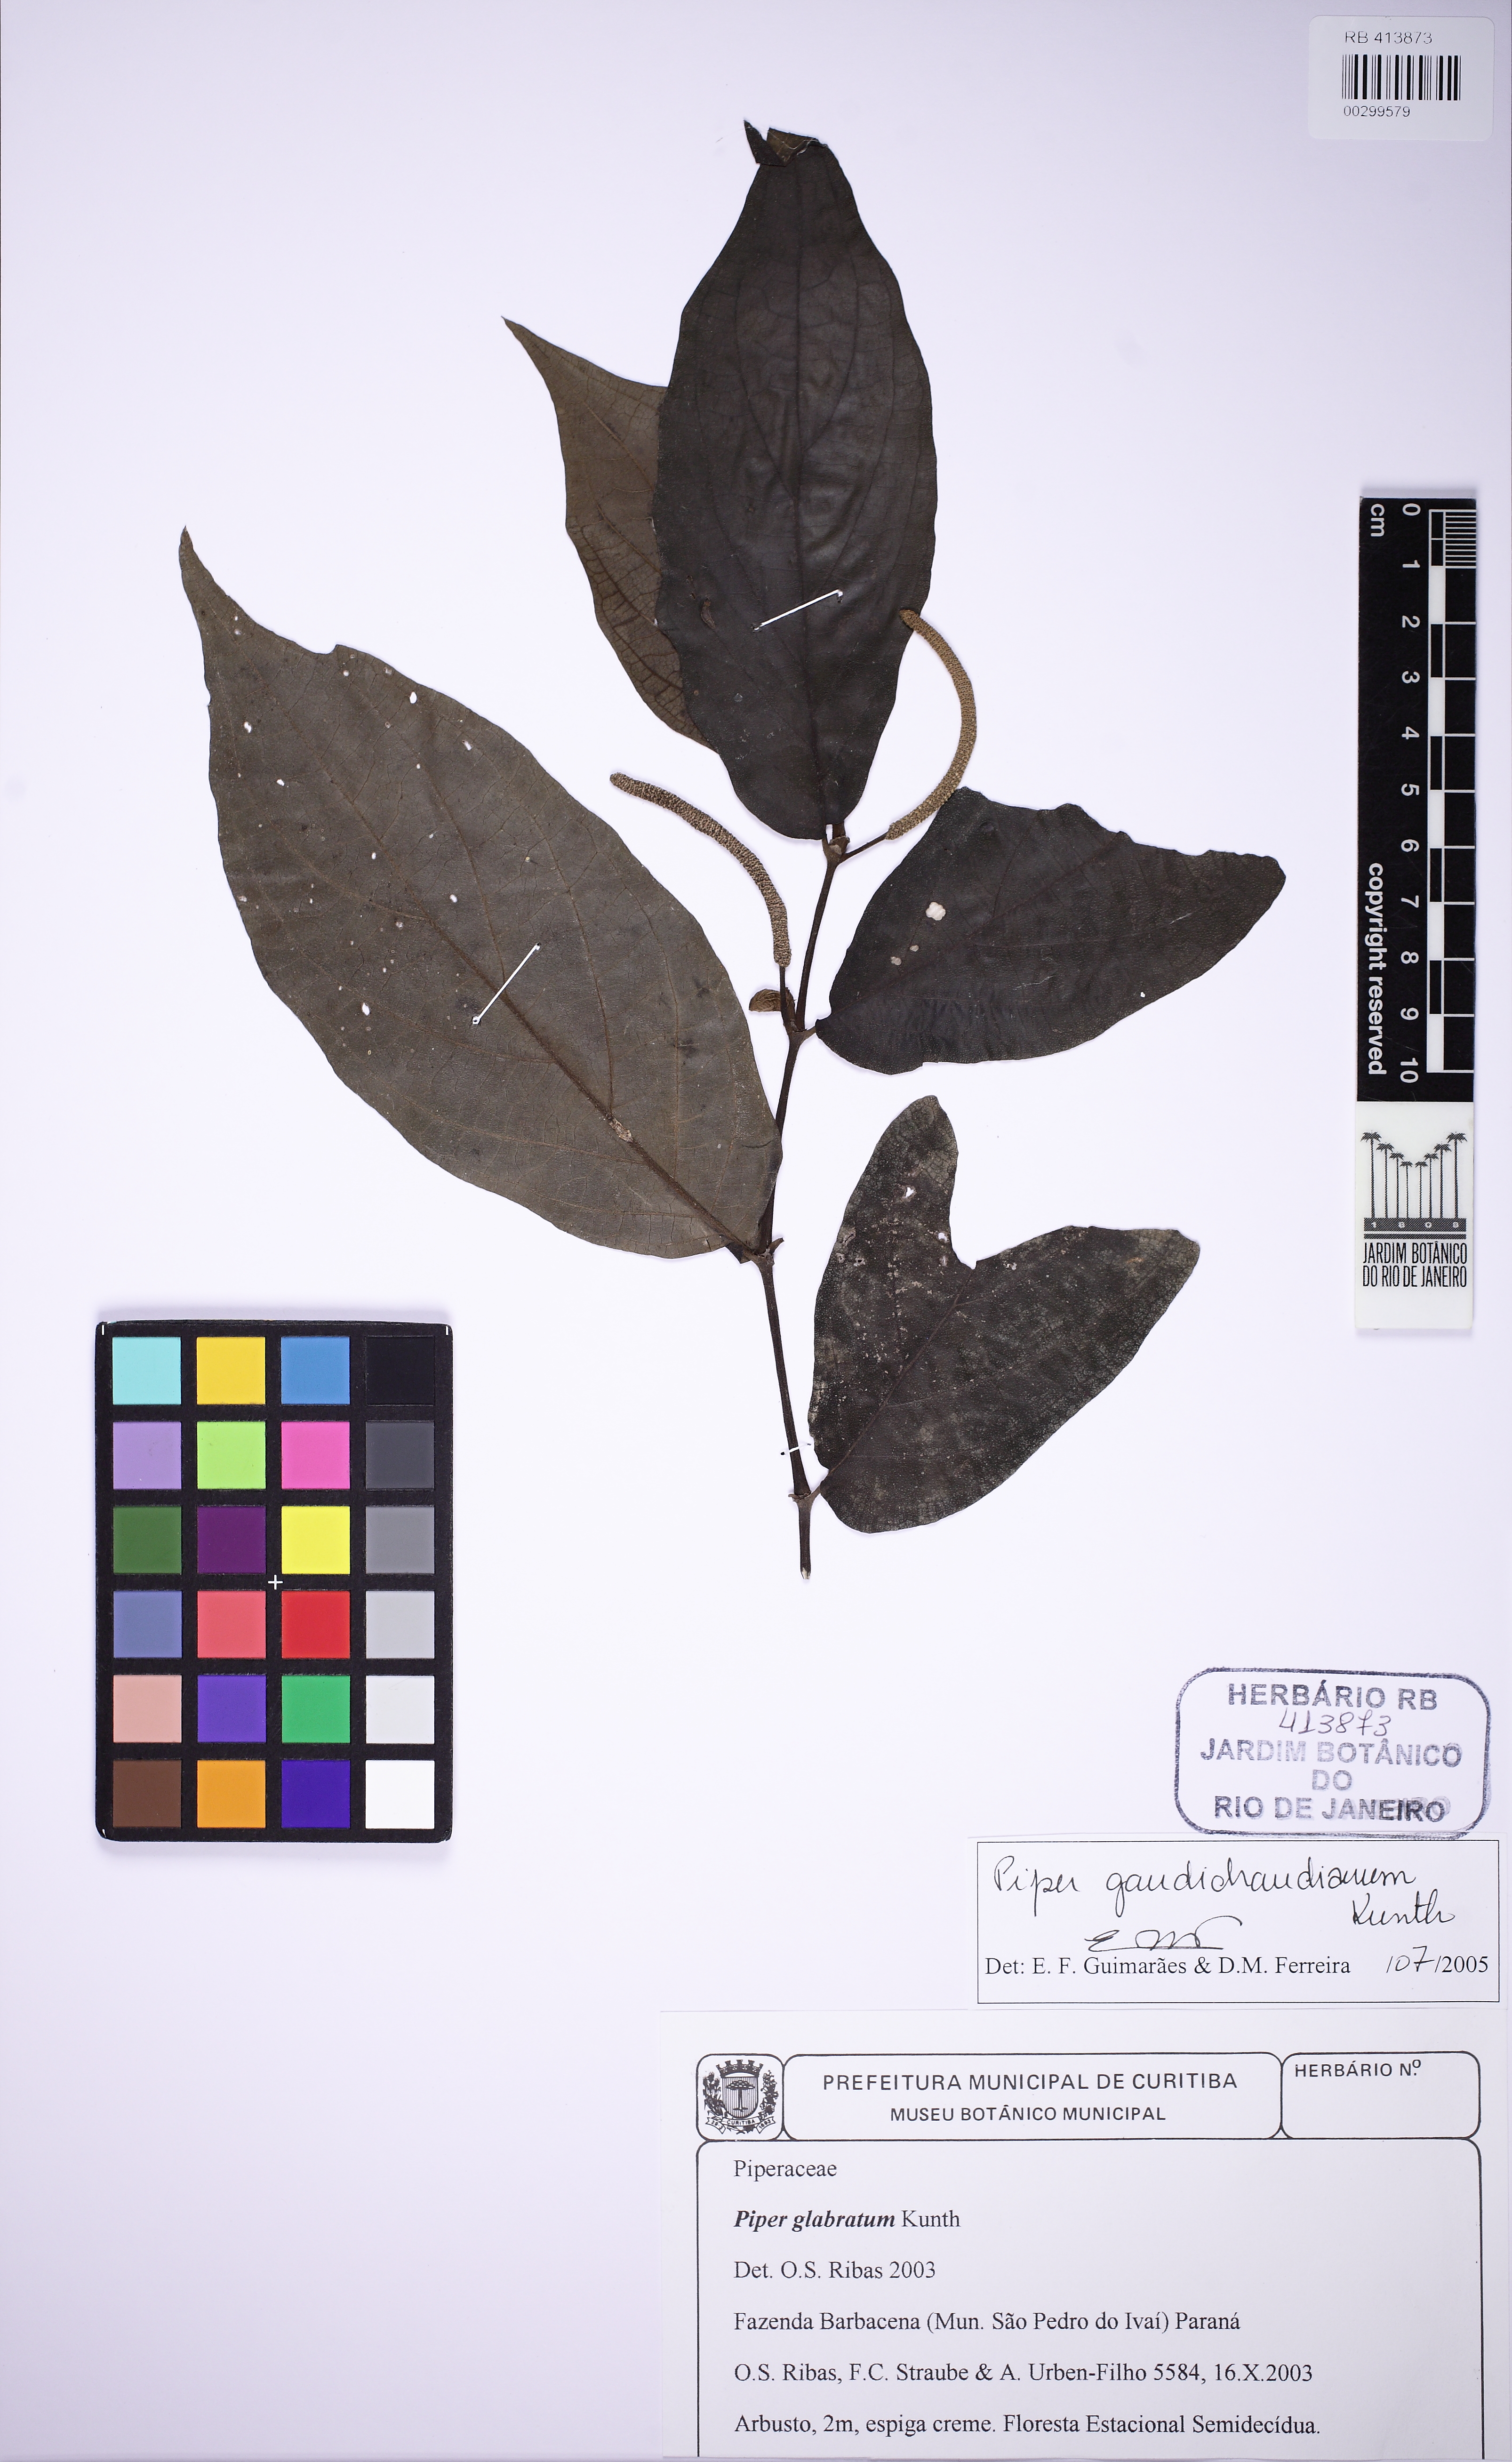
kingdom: Plantae
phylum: Tracheophyta
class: Magnoliopsida
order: Piperales
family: Piperaceae
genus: Piper
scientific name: Piper gaudichaudianum
